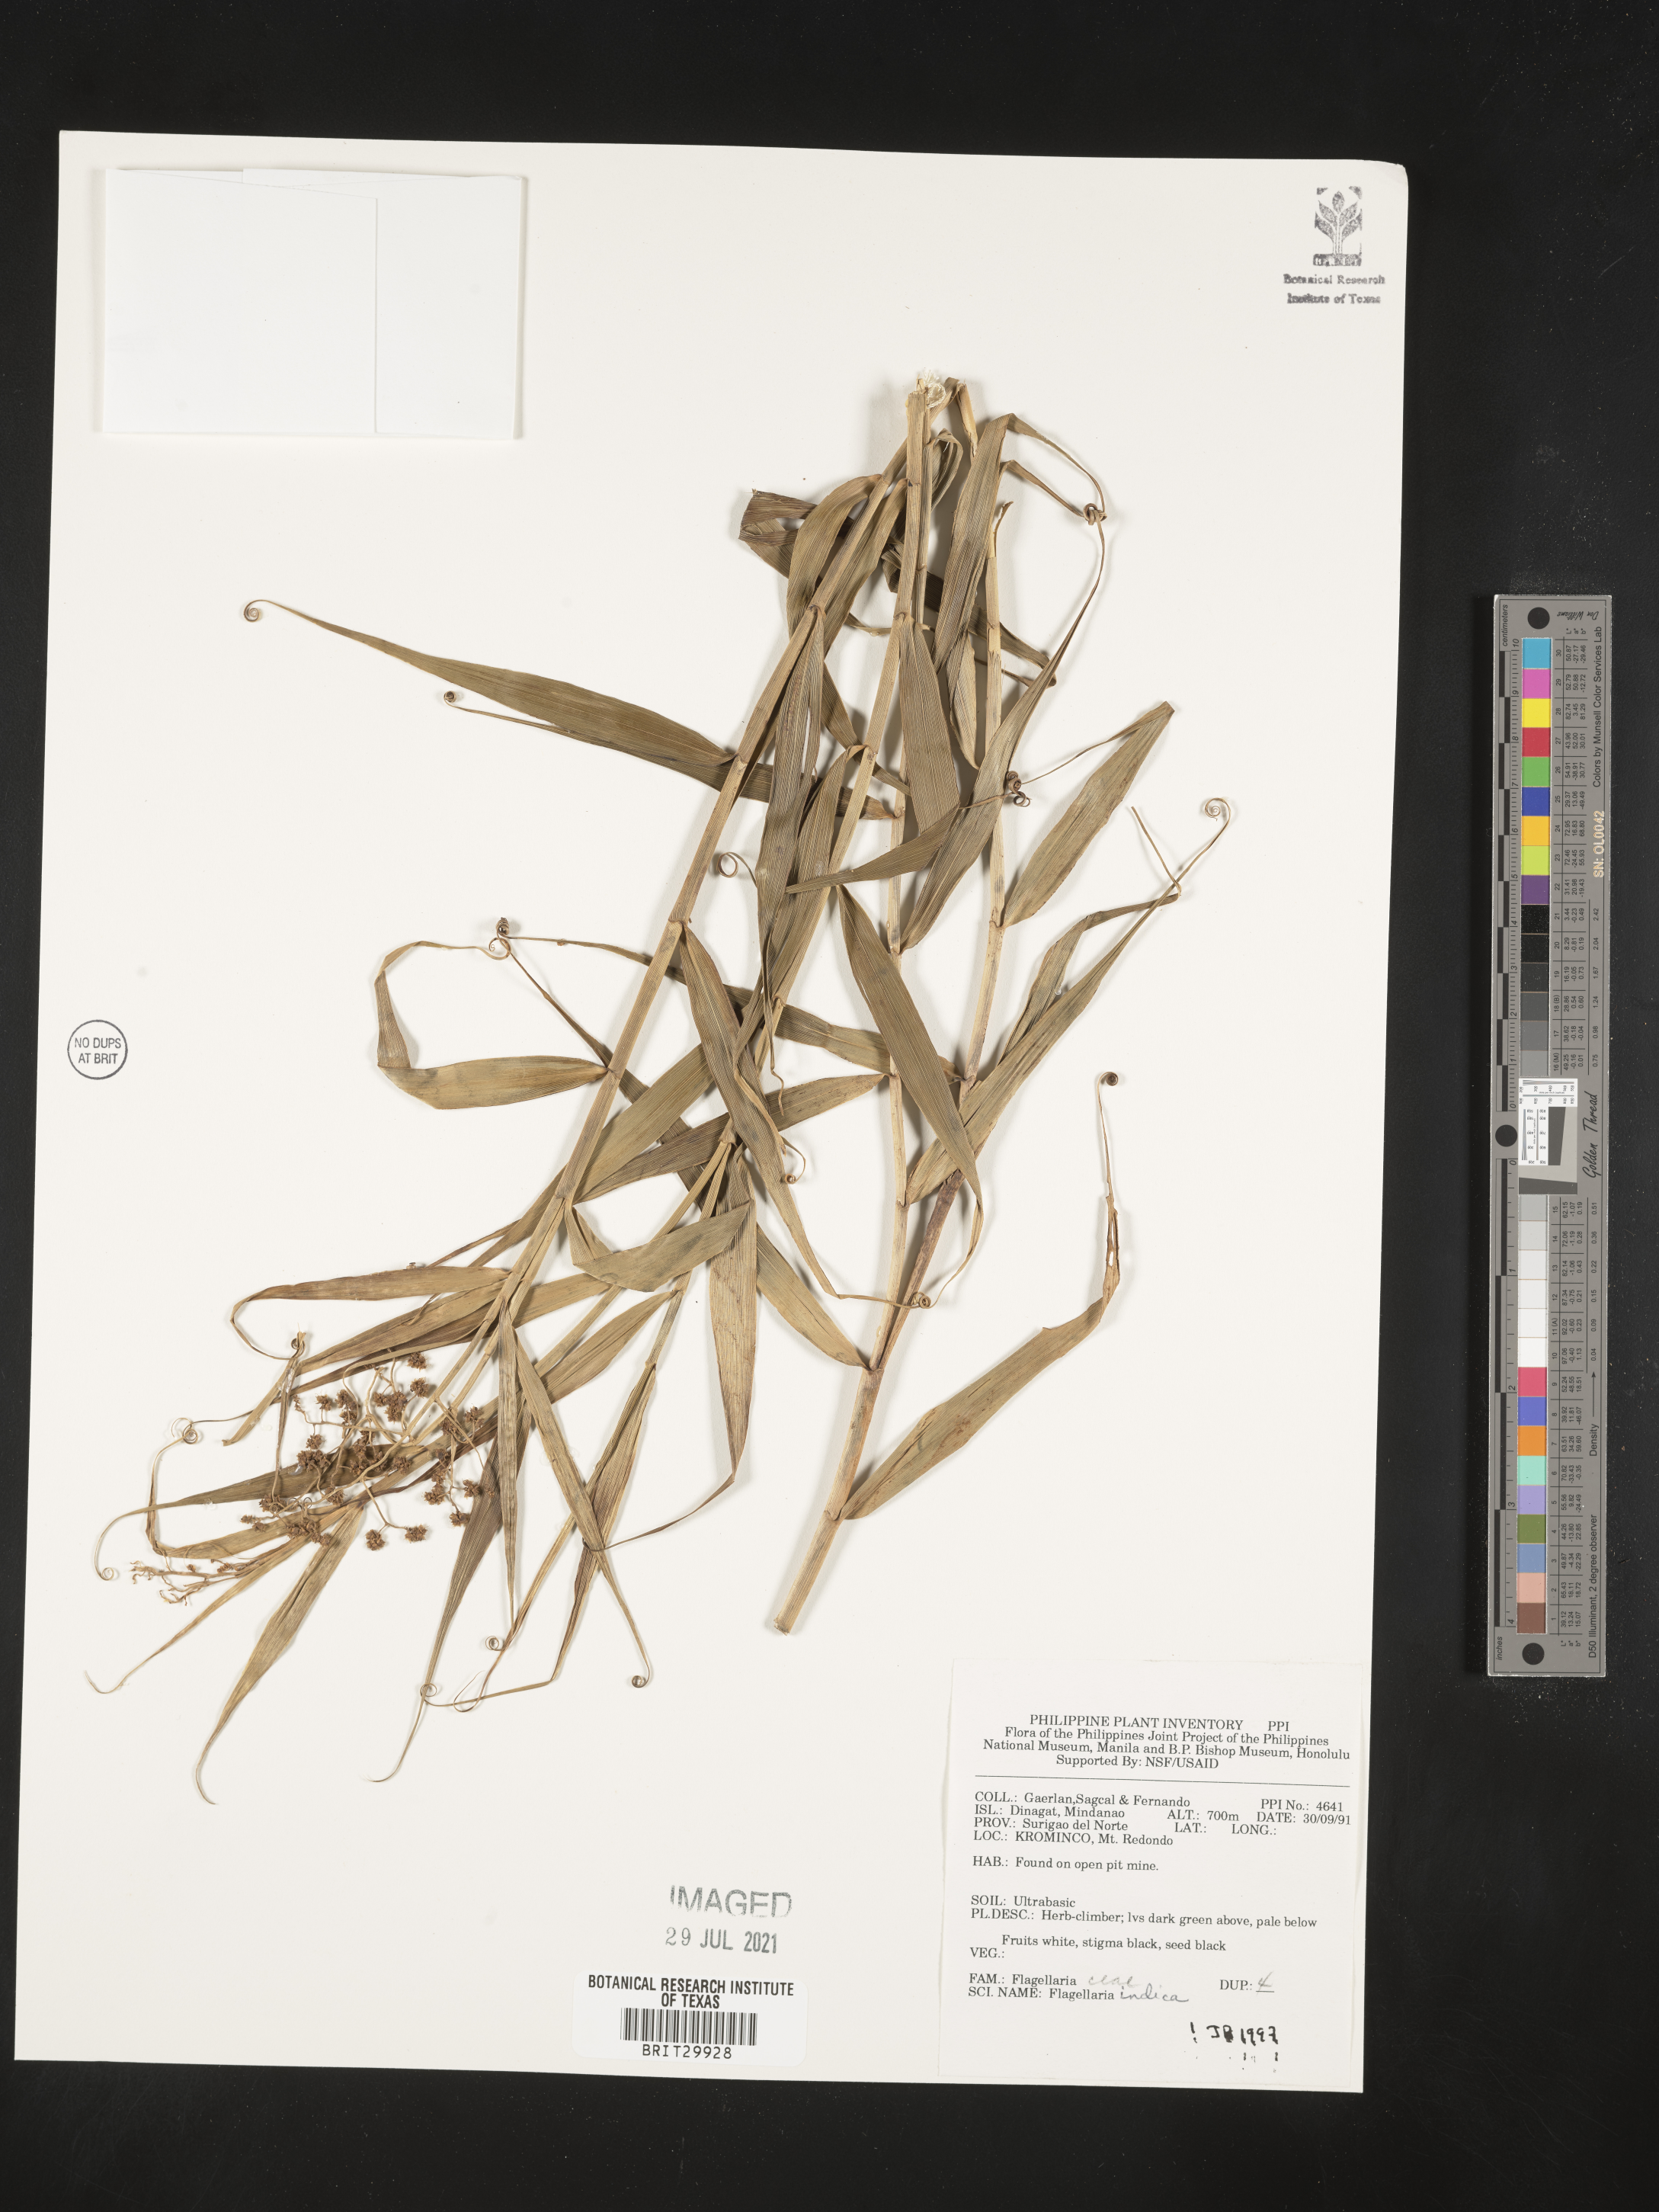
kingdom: Plantae
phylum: Tracheophyta
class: Liliopsida
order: Poales
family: Flagellariaceae
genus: Flagellaria
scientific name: Flagellaria indica
